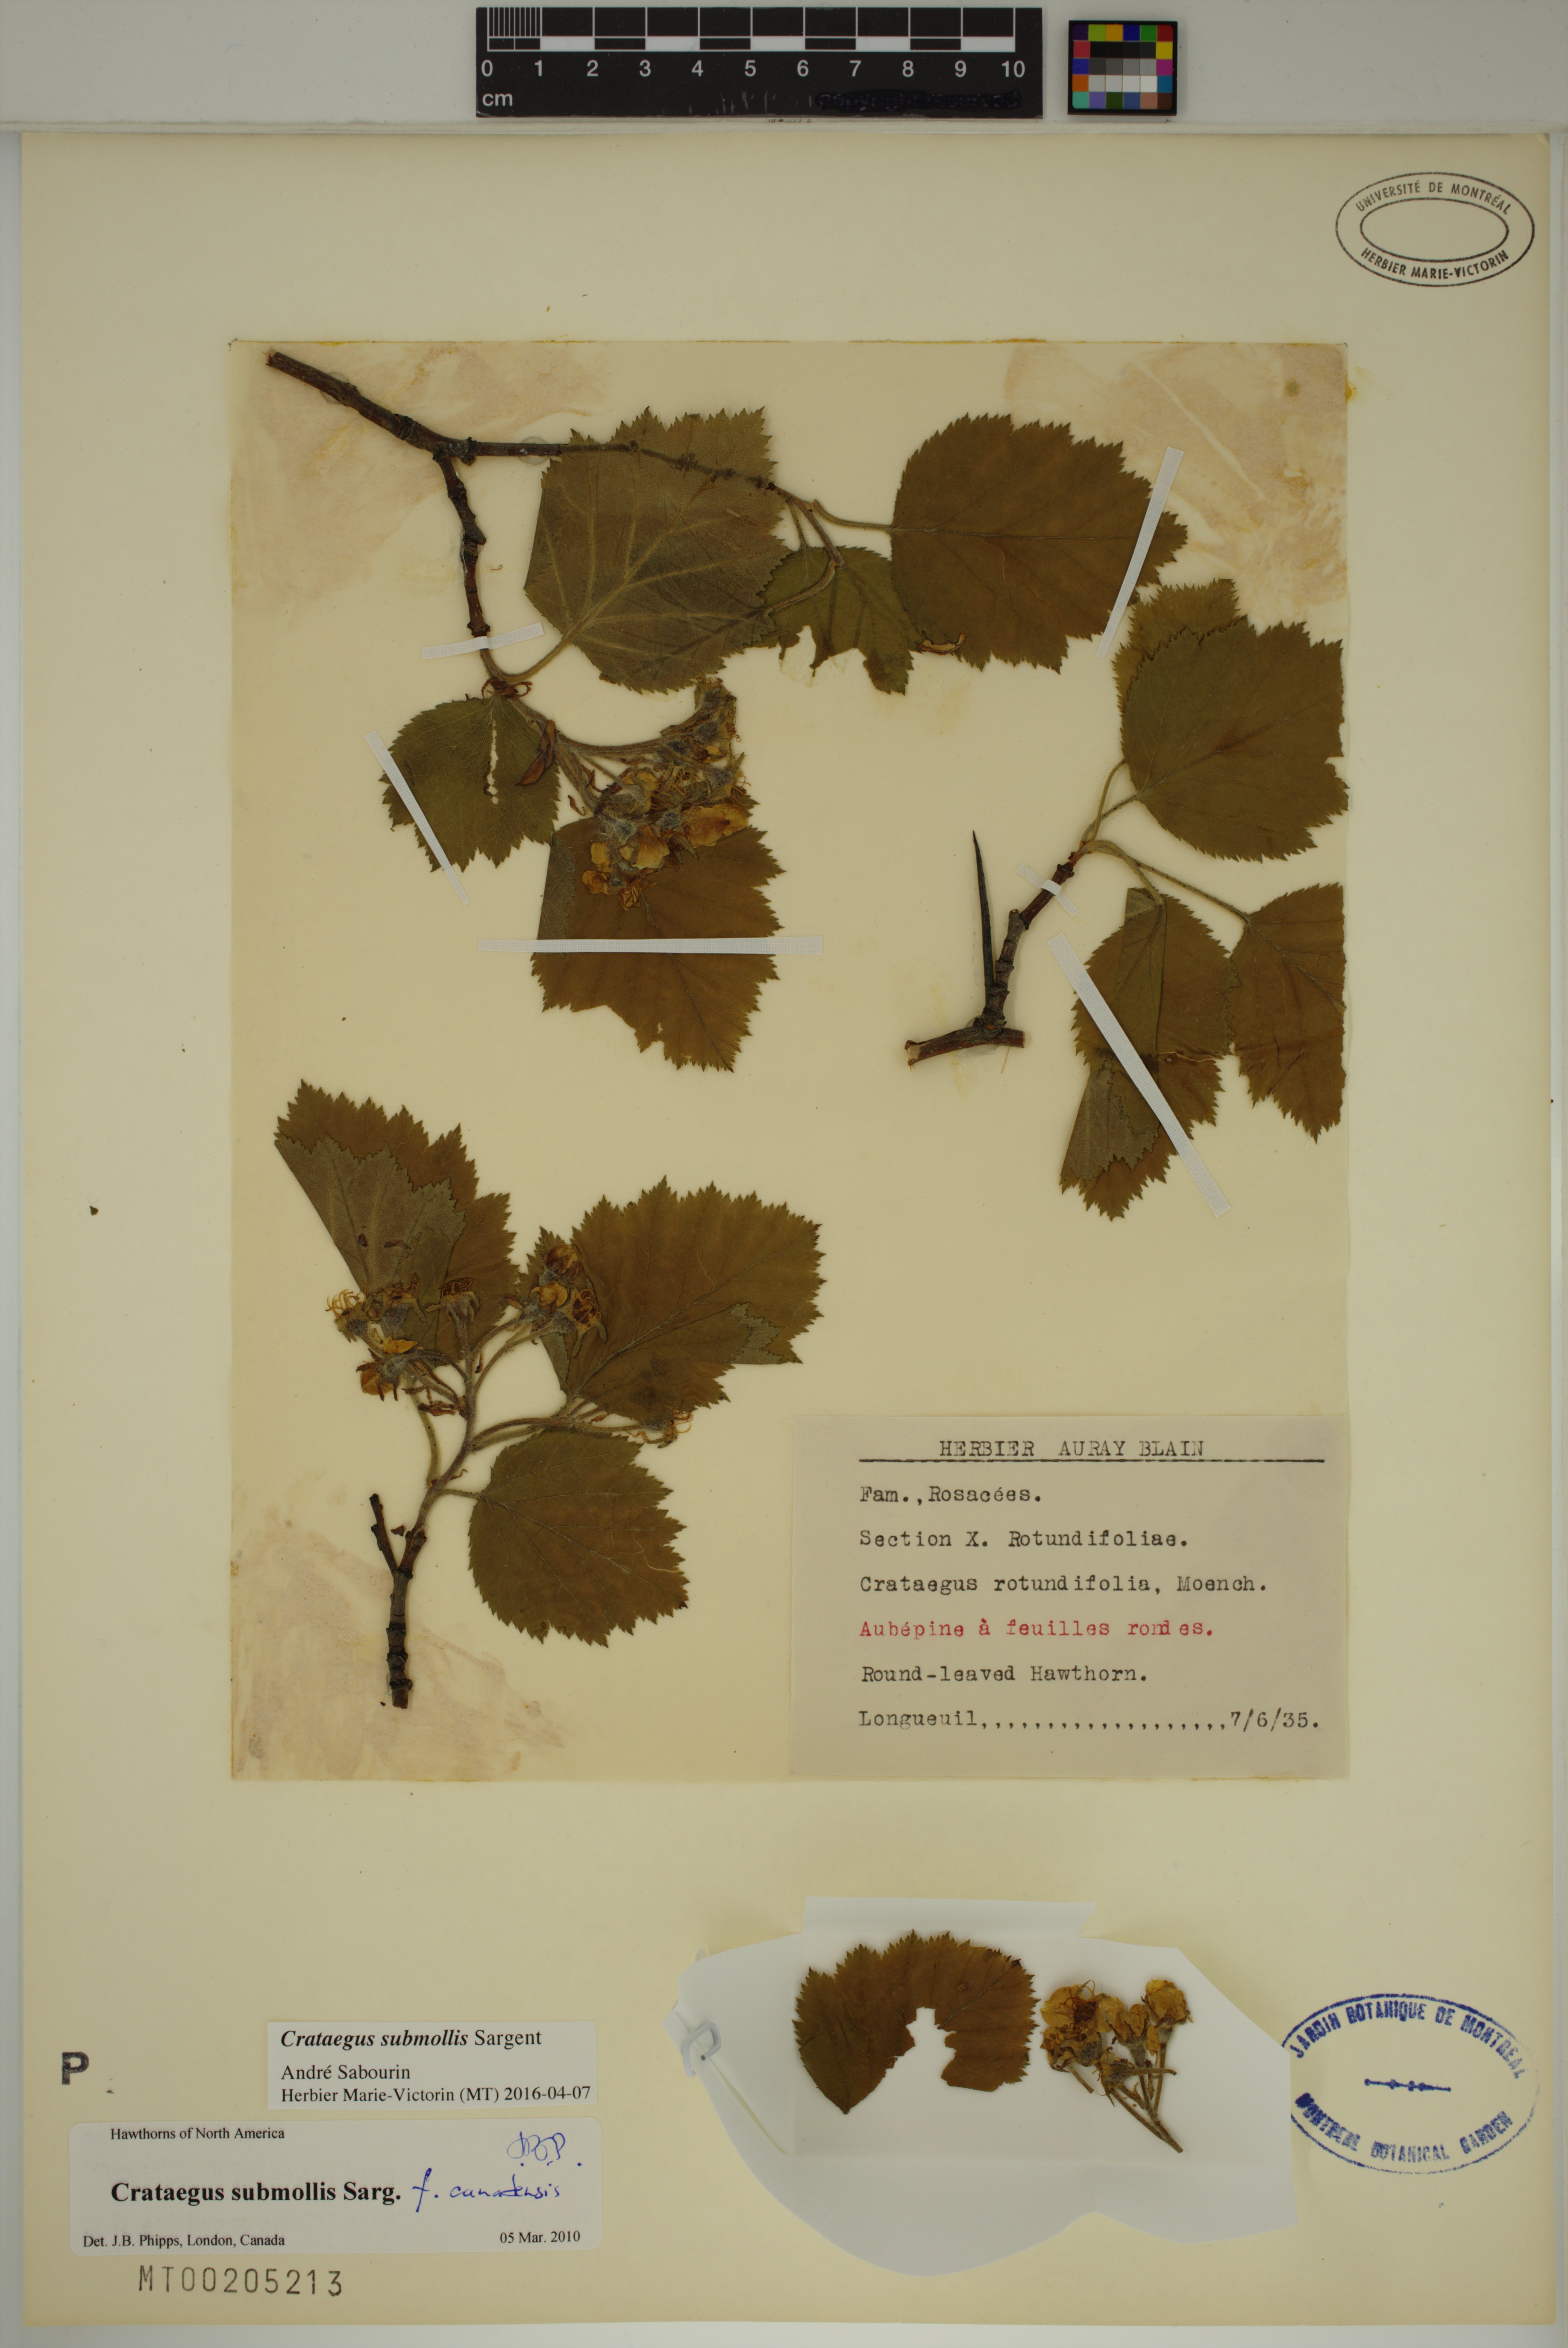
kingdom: Plantae
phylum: Tracheophyta
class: Magnoliopsida
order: Rosales
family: Rosaceae
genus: Crataegus
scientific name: Crataegus submollis
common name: Hairy cockspurthorn
